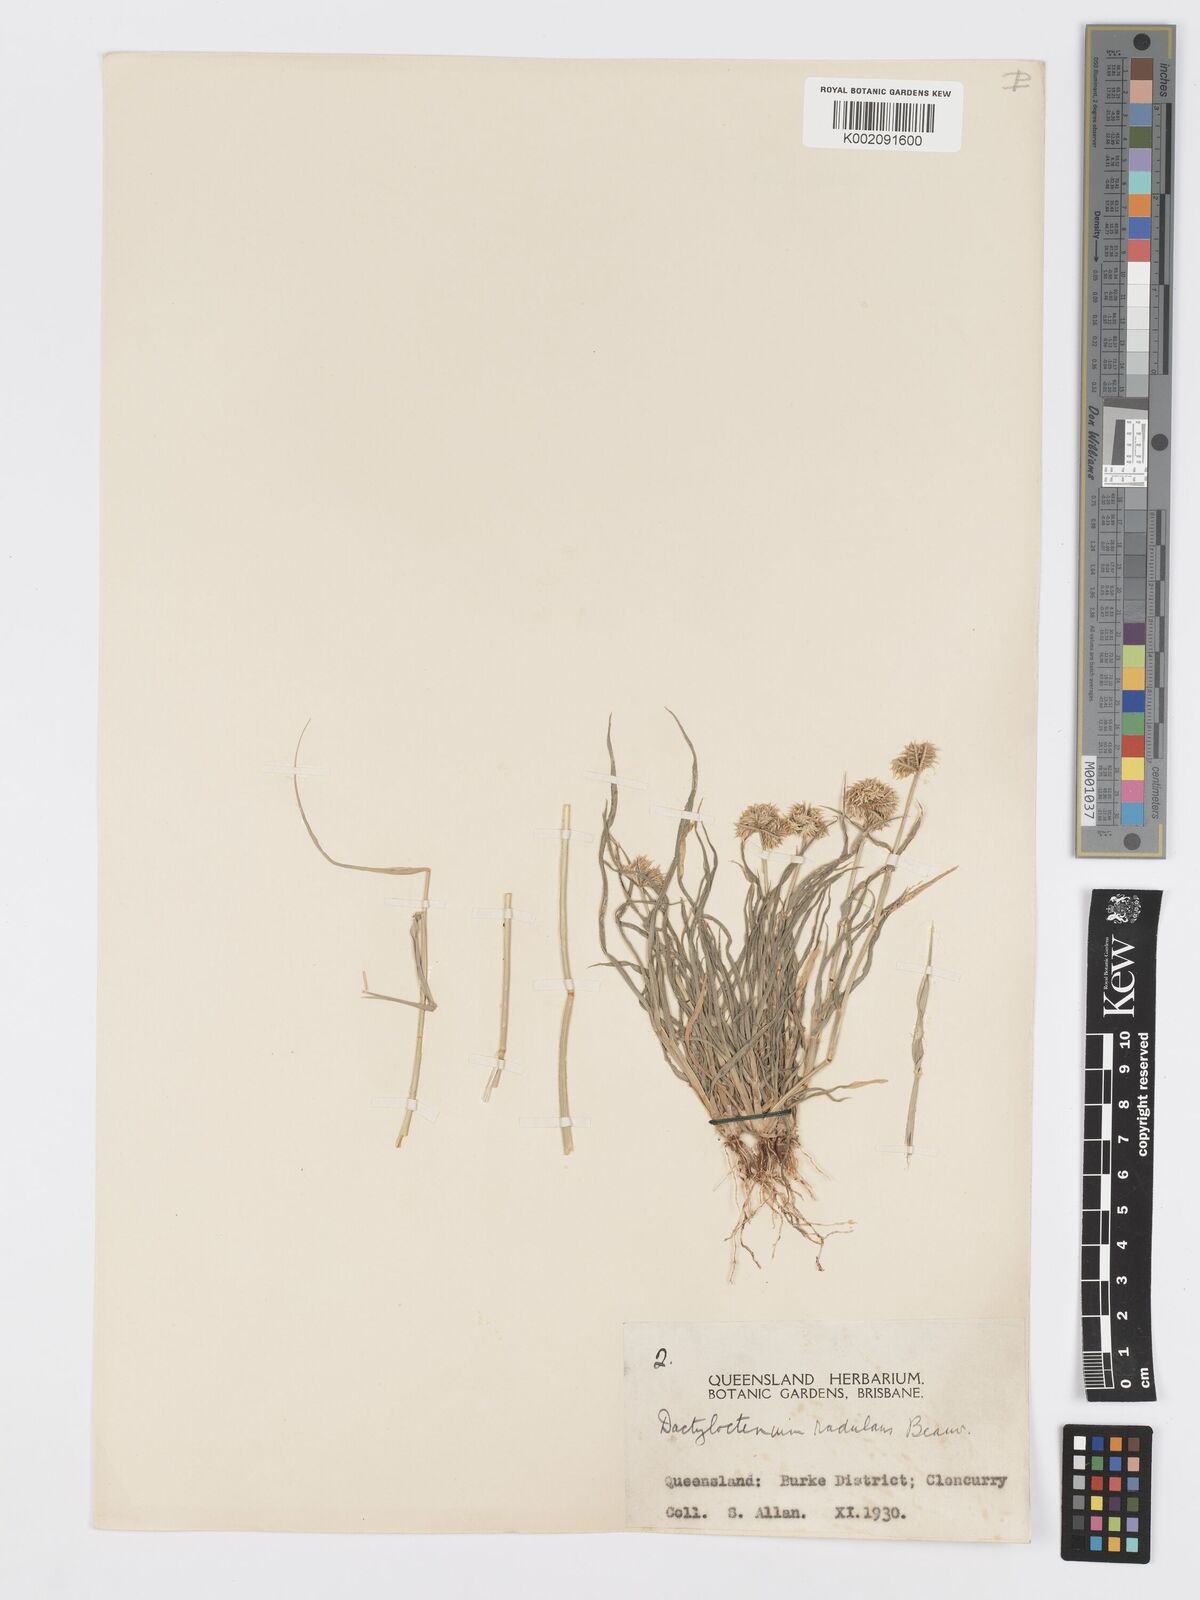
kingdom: Plantae
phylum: Tracheophyta
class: Liliopsida
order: Poales
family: Poaceae
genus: Dactyloctenium
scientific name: Dactyloctenium radulans
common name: Button-grass
